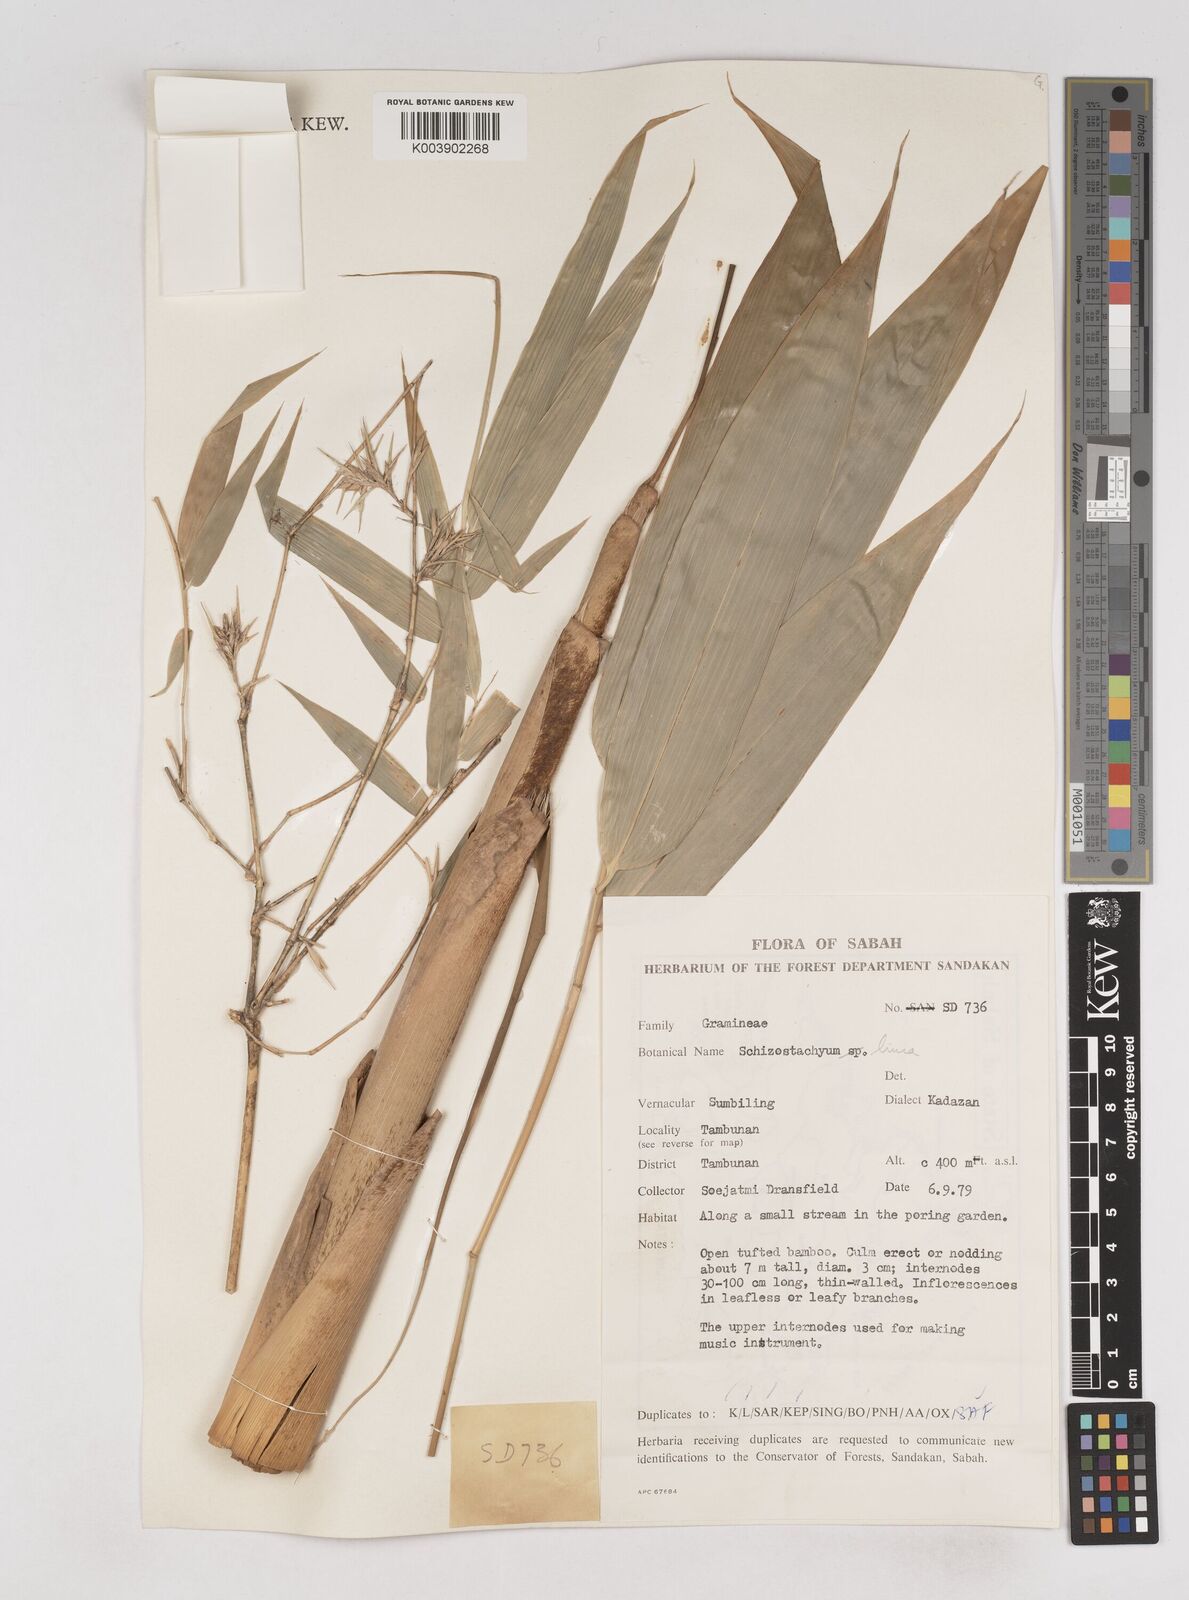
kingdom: Plantae
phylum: Tracheophyta
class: Liliopsida
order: Poales
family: Poaceae
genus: Schizostachyum
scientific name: Schizostachyum lima
